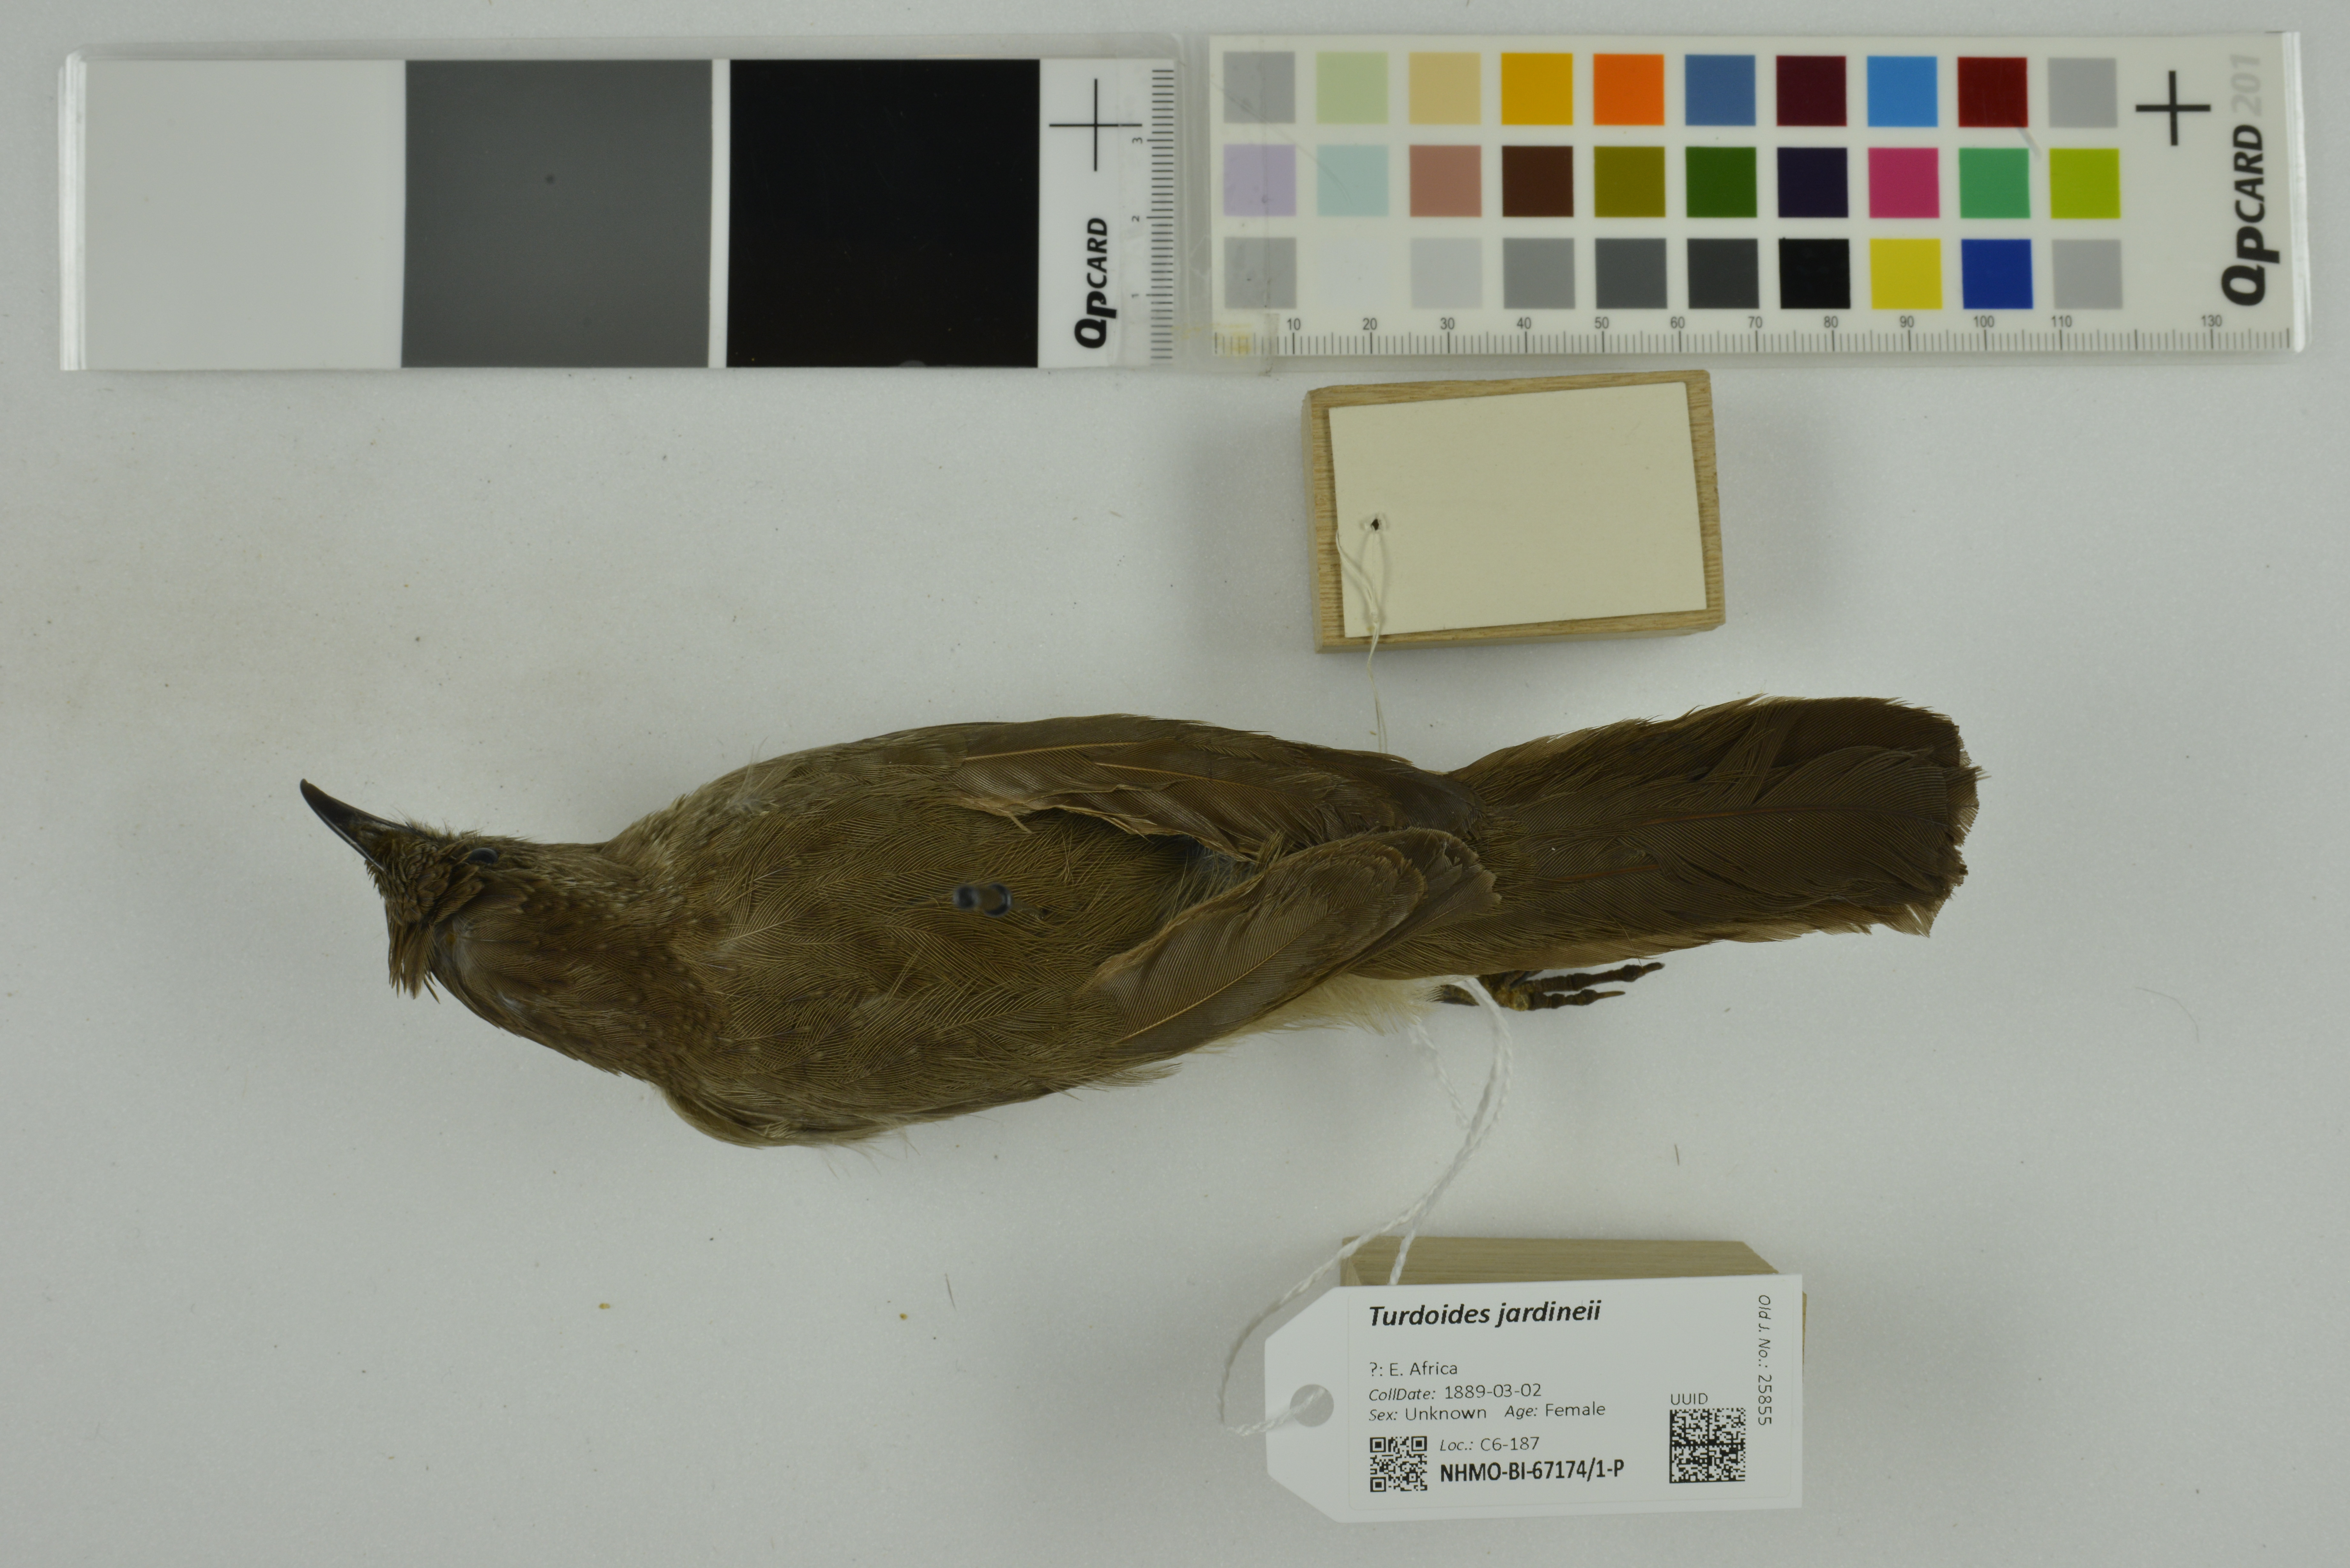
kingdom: Animalia
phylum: Chordata
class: Aves
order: Passeriformes
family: Leiothrichidae
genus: Turdoides
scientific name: Turdoides jardineii
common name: Arrow-marked babbler
